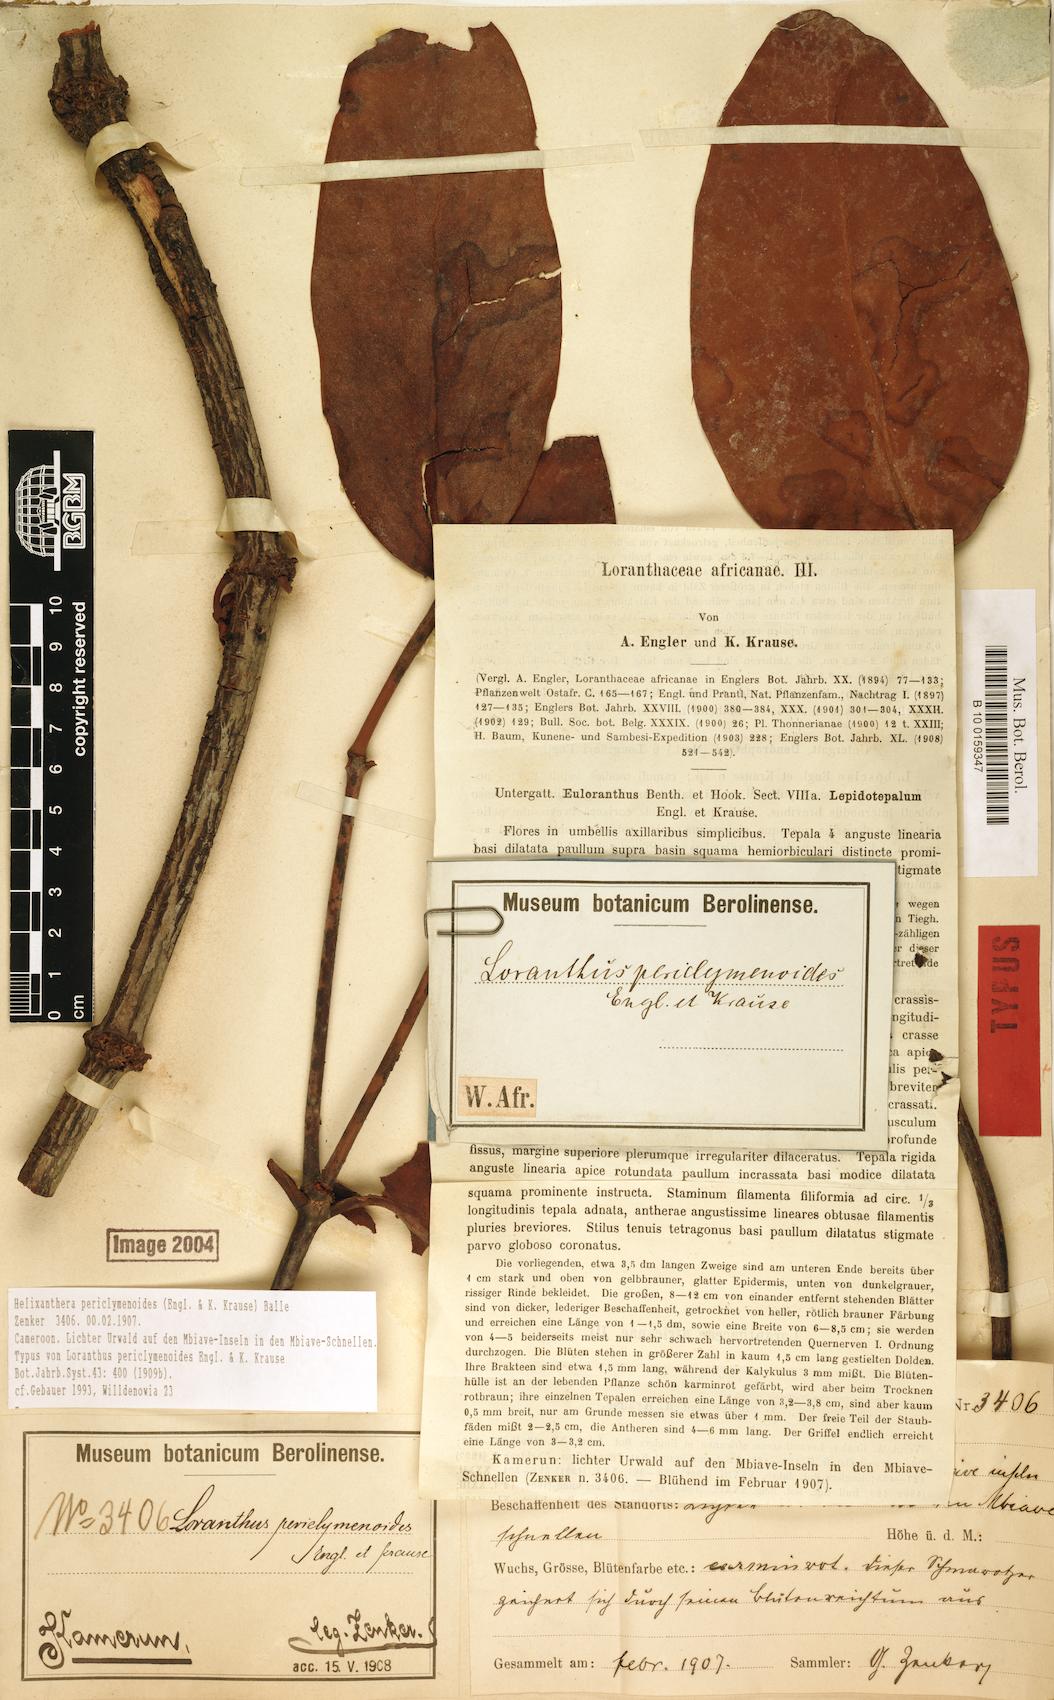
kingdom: Plantae
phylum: Tracheophyta
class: Magnoliopsida
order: Santalales
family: Loranthaceae
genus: Helixanthera
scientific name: Helixanthera periclymenoides
